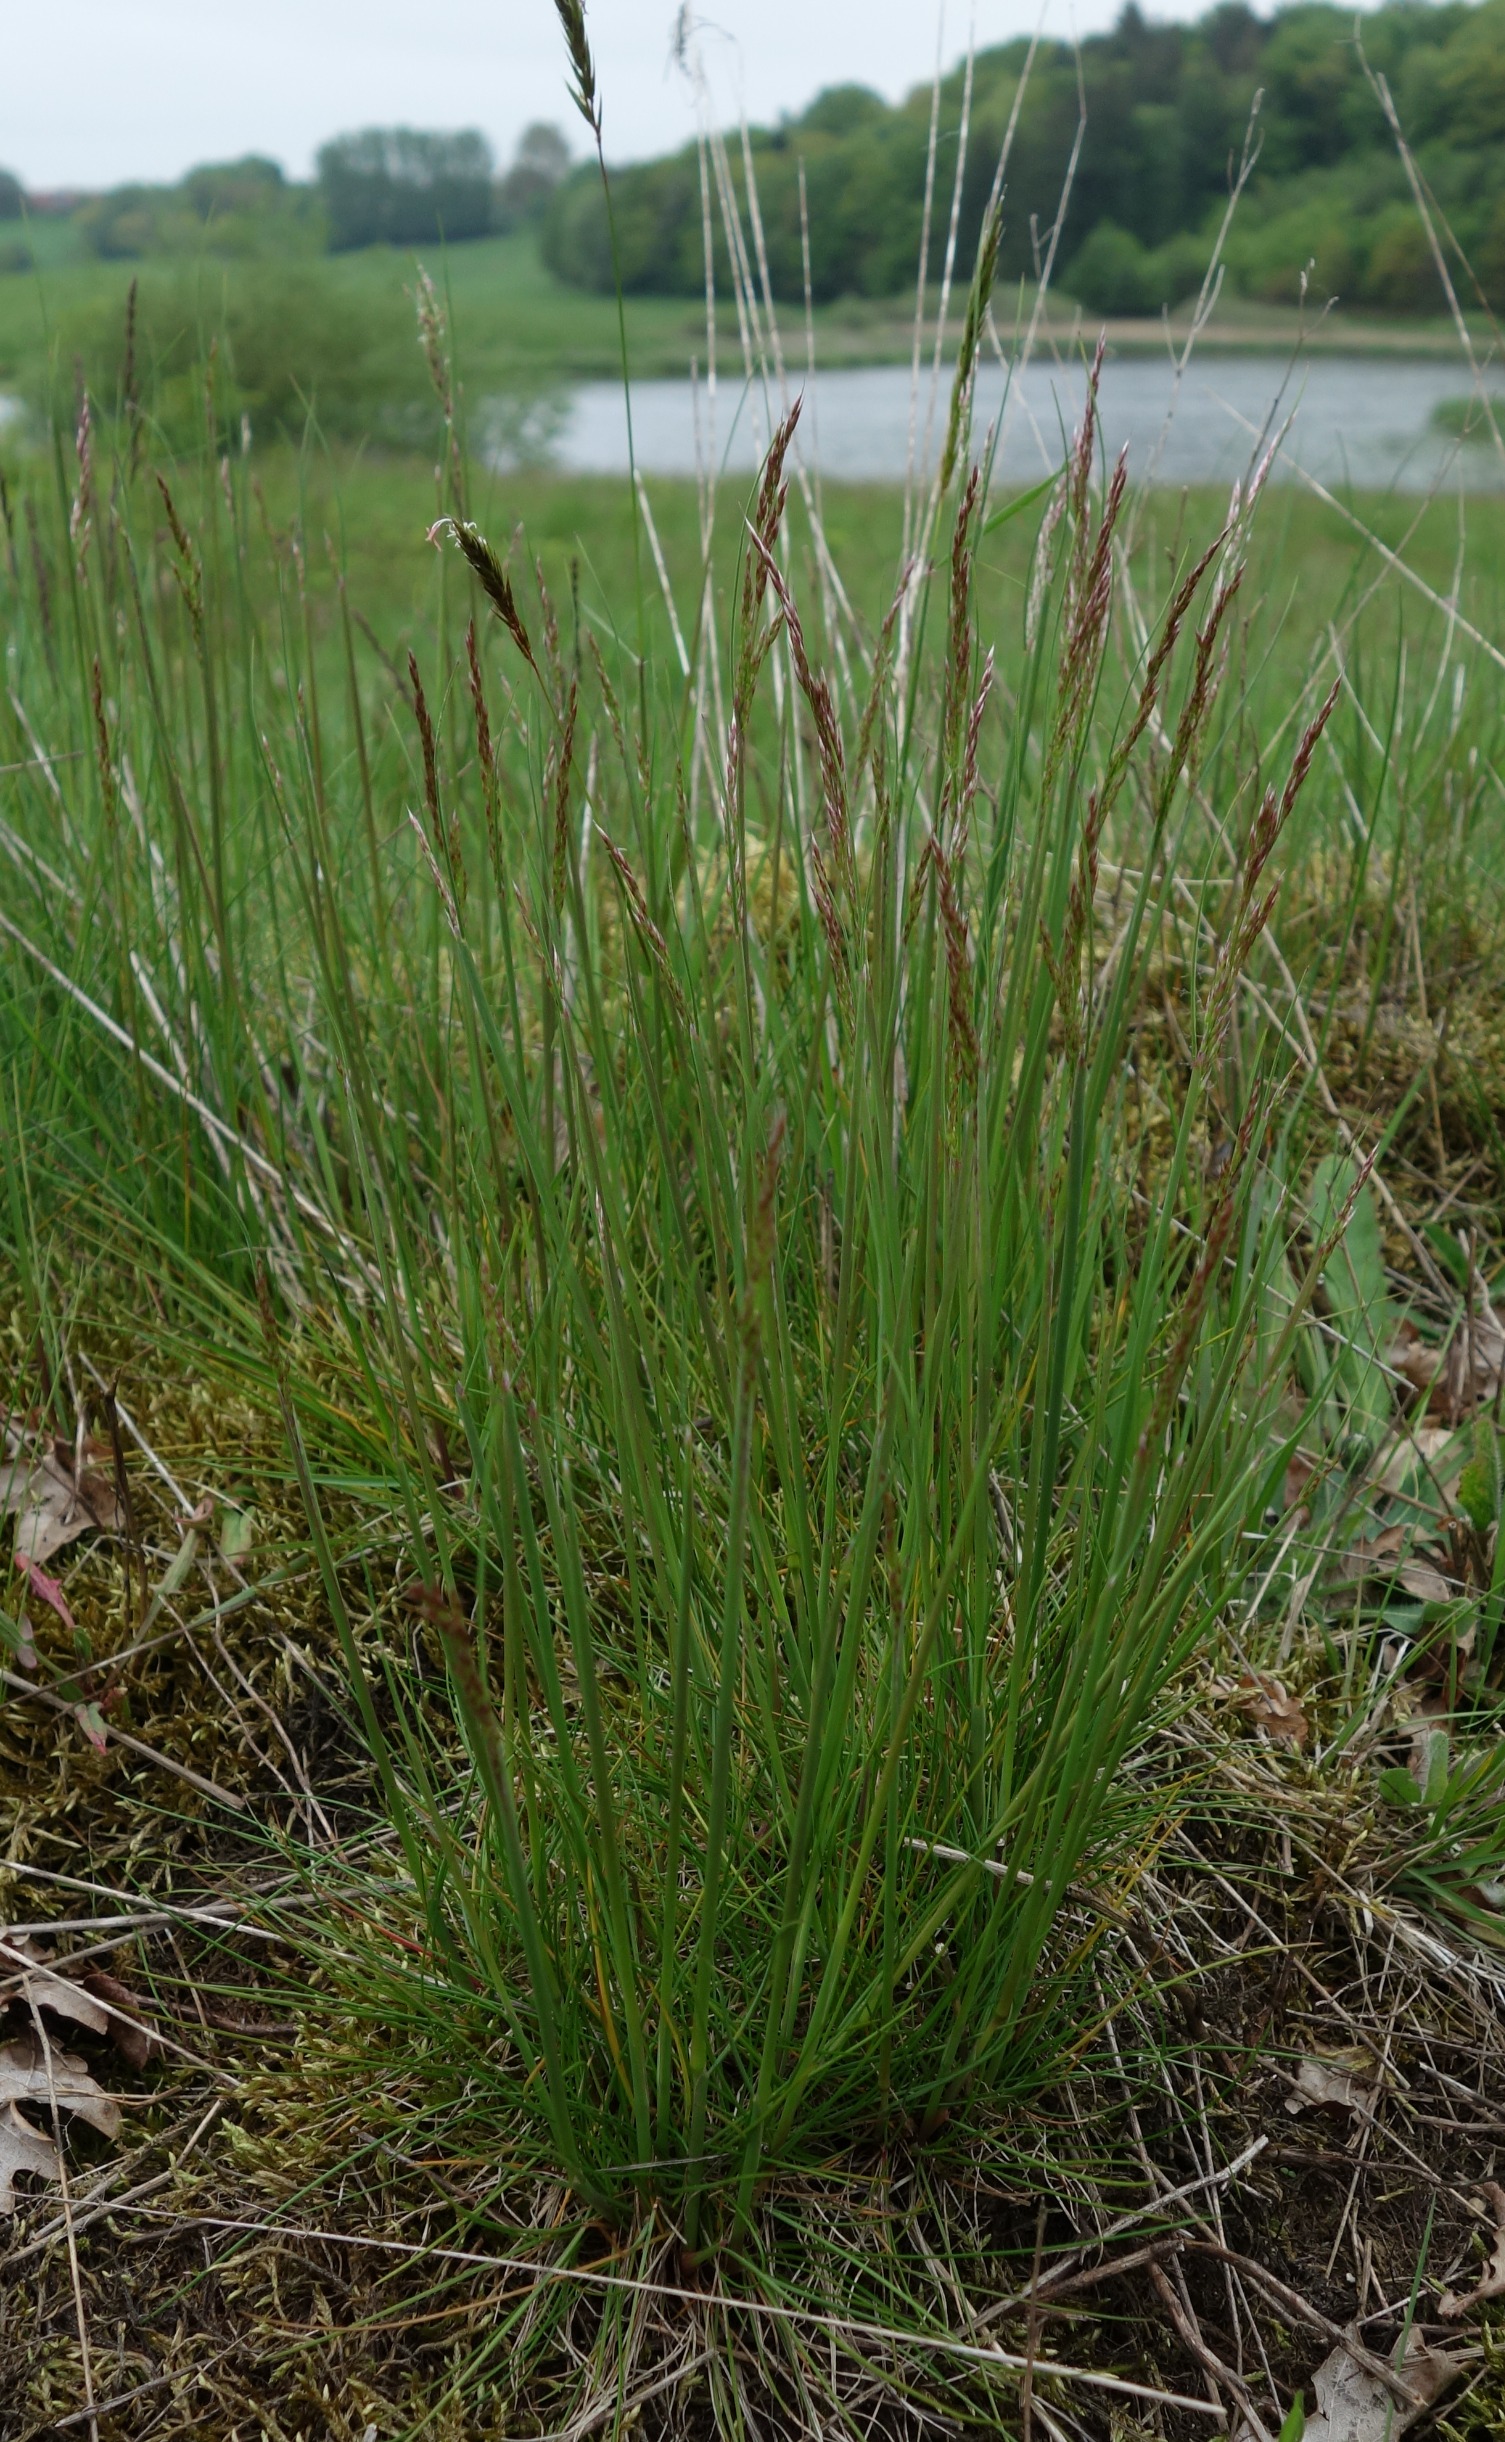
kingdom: Plantae
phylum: Tracheophyta
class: Liliopsida
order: Poales
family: Poaceae
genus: Avenella
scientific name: Avenella flexuosa
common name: Bølget bunke
